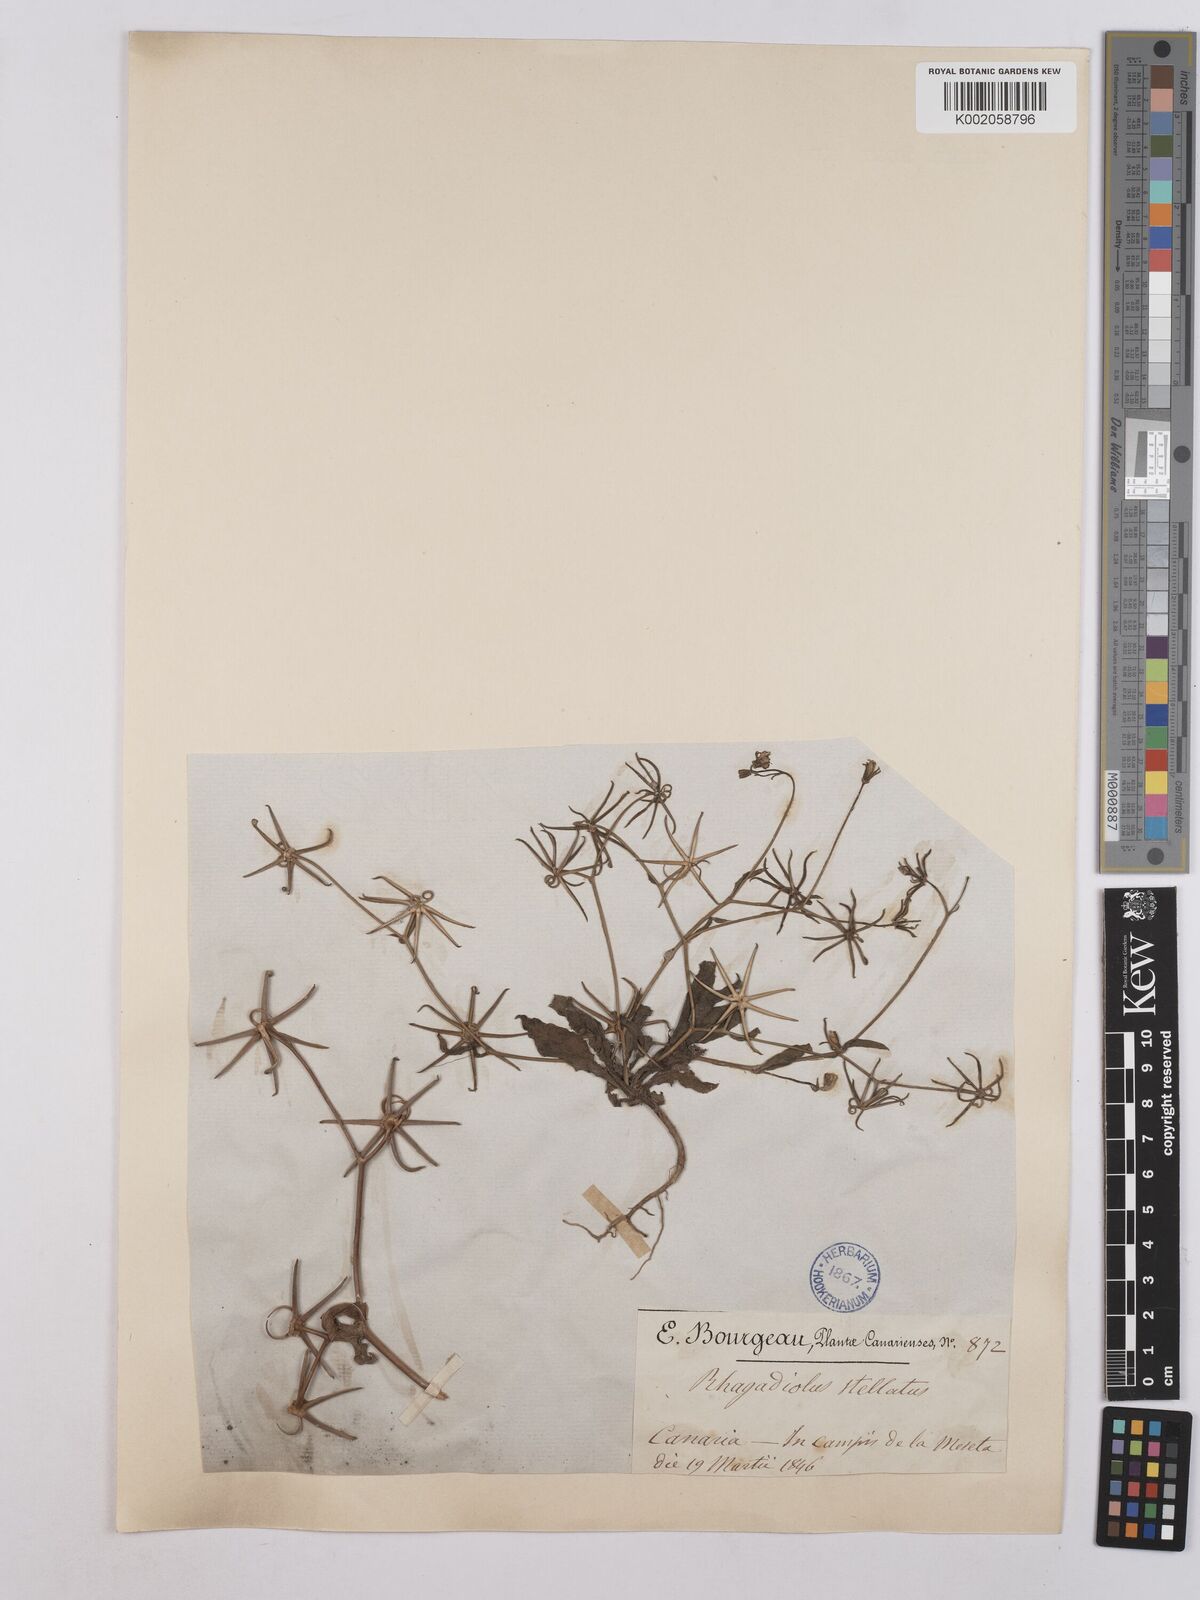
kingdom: Plantae
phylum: Tracheophyta
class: Magnoliopsida
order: Asterales
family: Asteraceae
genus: Rhagadiolus
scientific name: Rhagadiolus stellatus
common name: Star hawkbit
